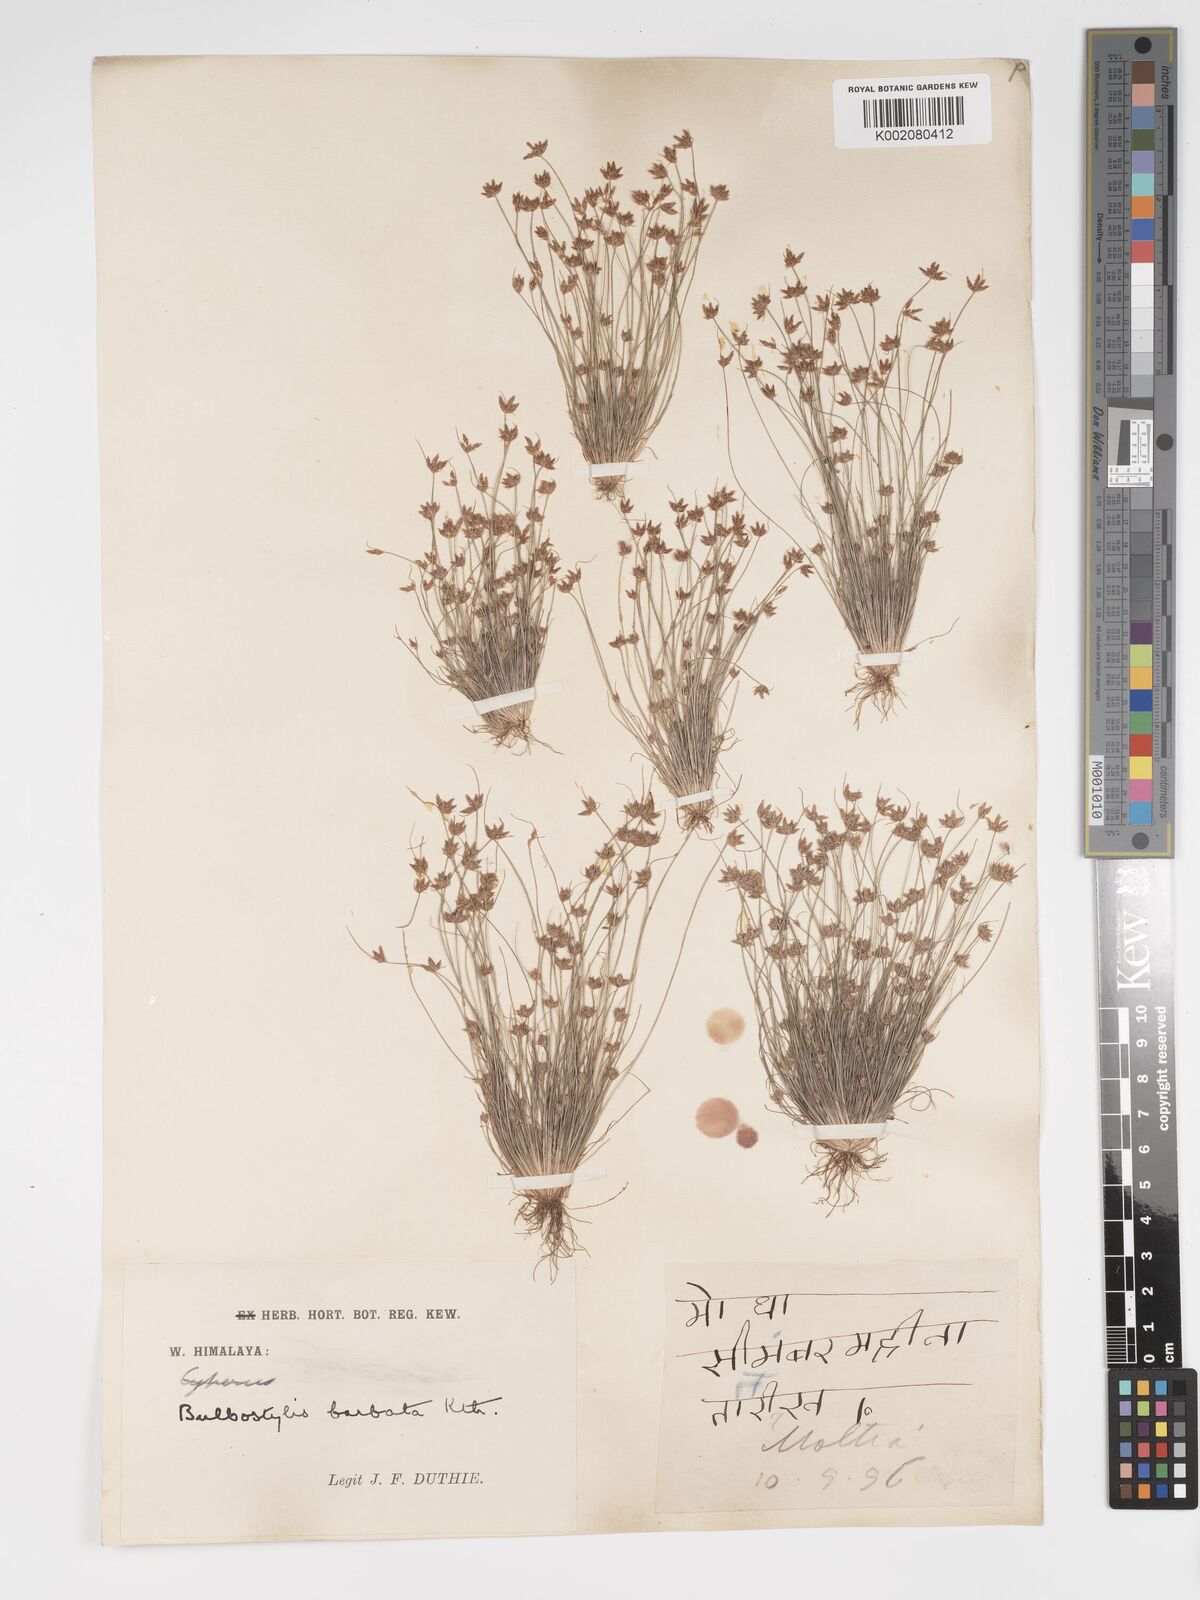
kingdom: Plantae
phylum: Tracheophyta
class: Liliopsida
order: Poales
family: Cyperaceae
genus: Bulbostylis
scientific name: Bulbostylis barbata
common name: Watergrass
